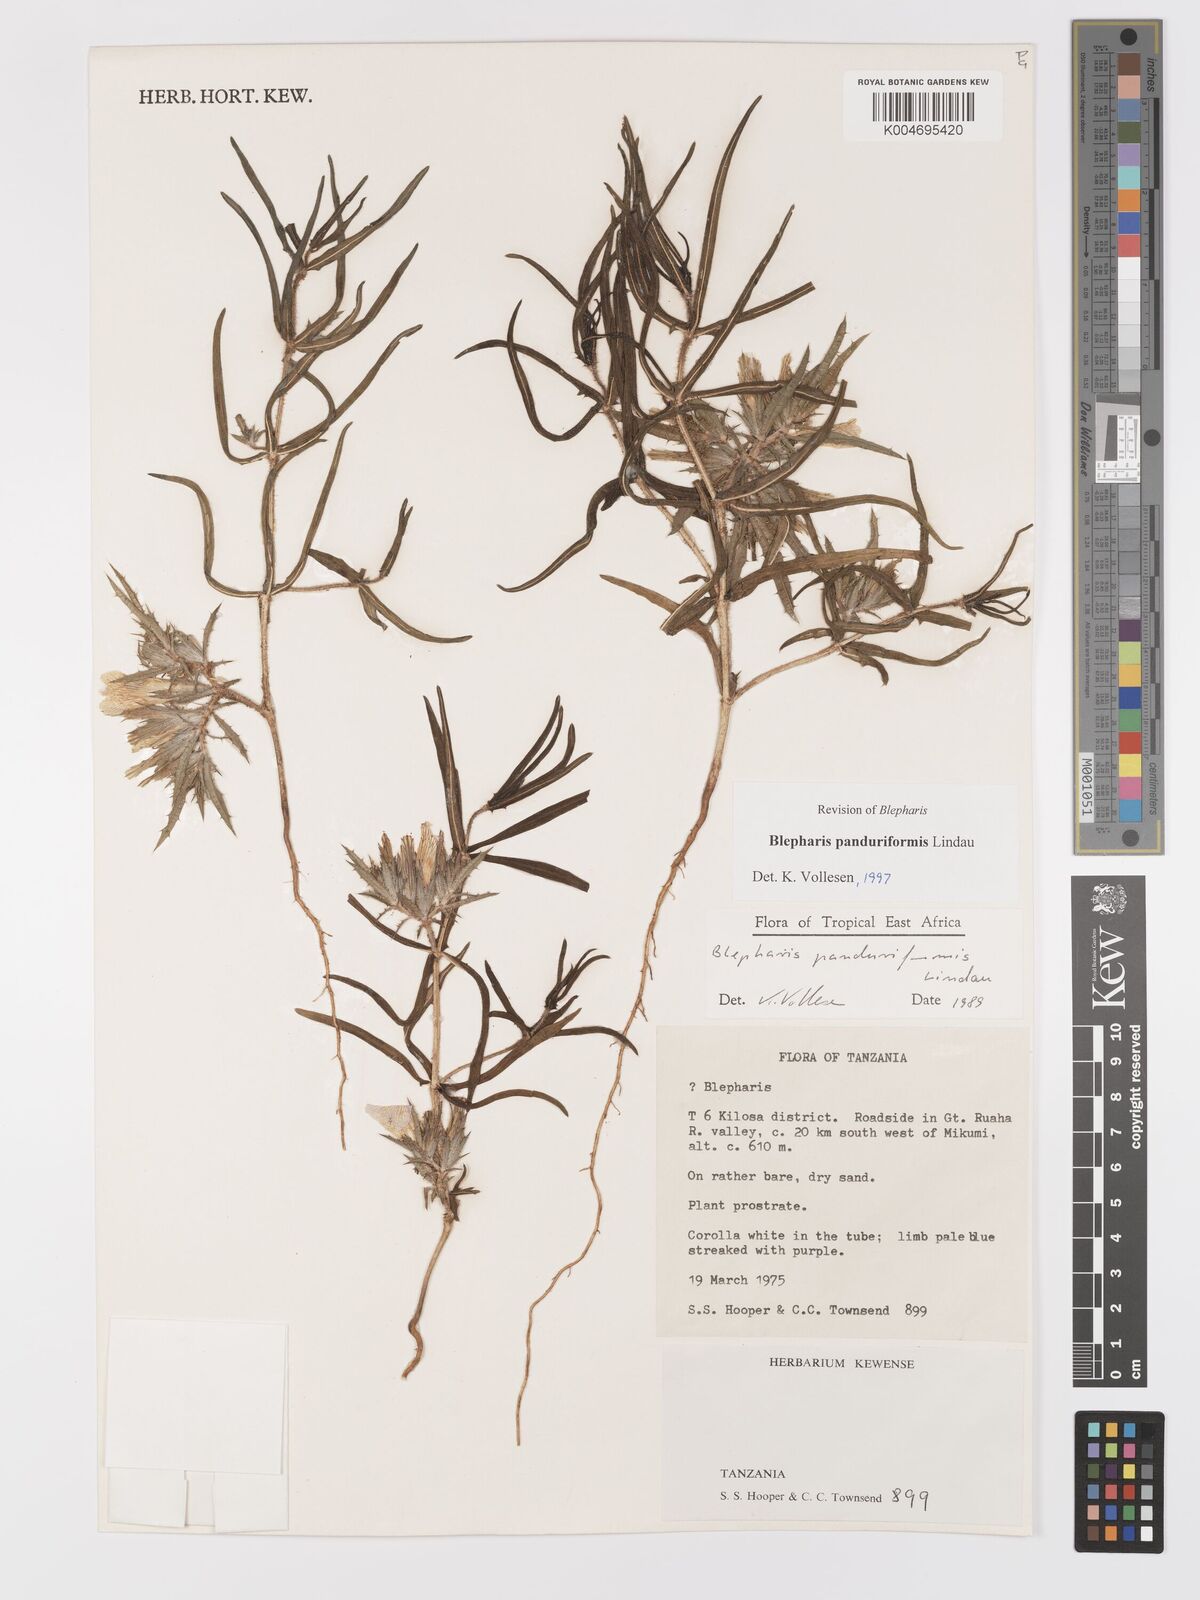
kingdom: Plantae
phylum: Tracheophyta
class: Magnoliopsida
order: Lamiales
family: Acanthaceae
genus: Blepharis
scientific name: Blepharis panduriformis
